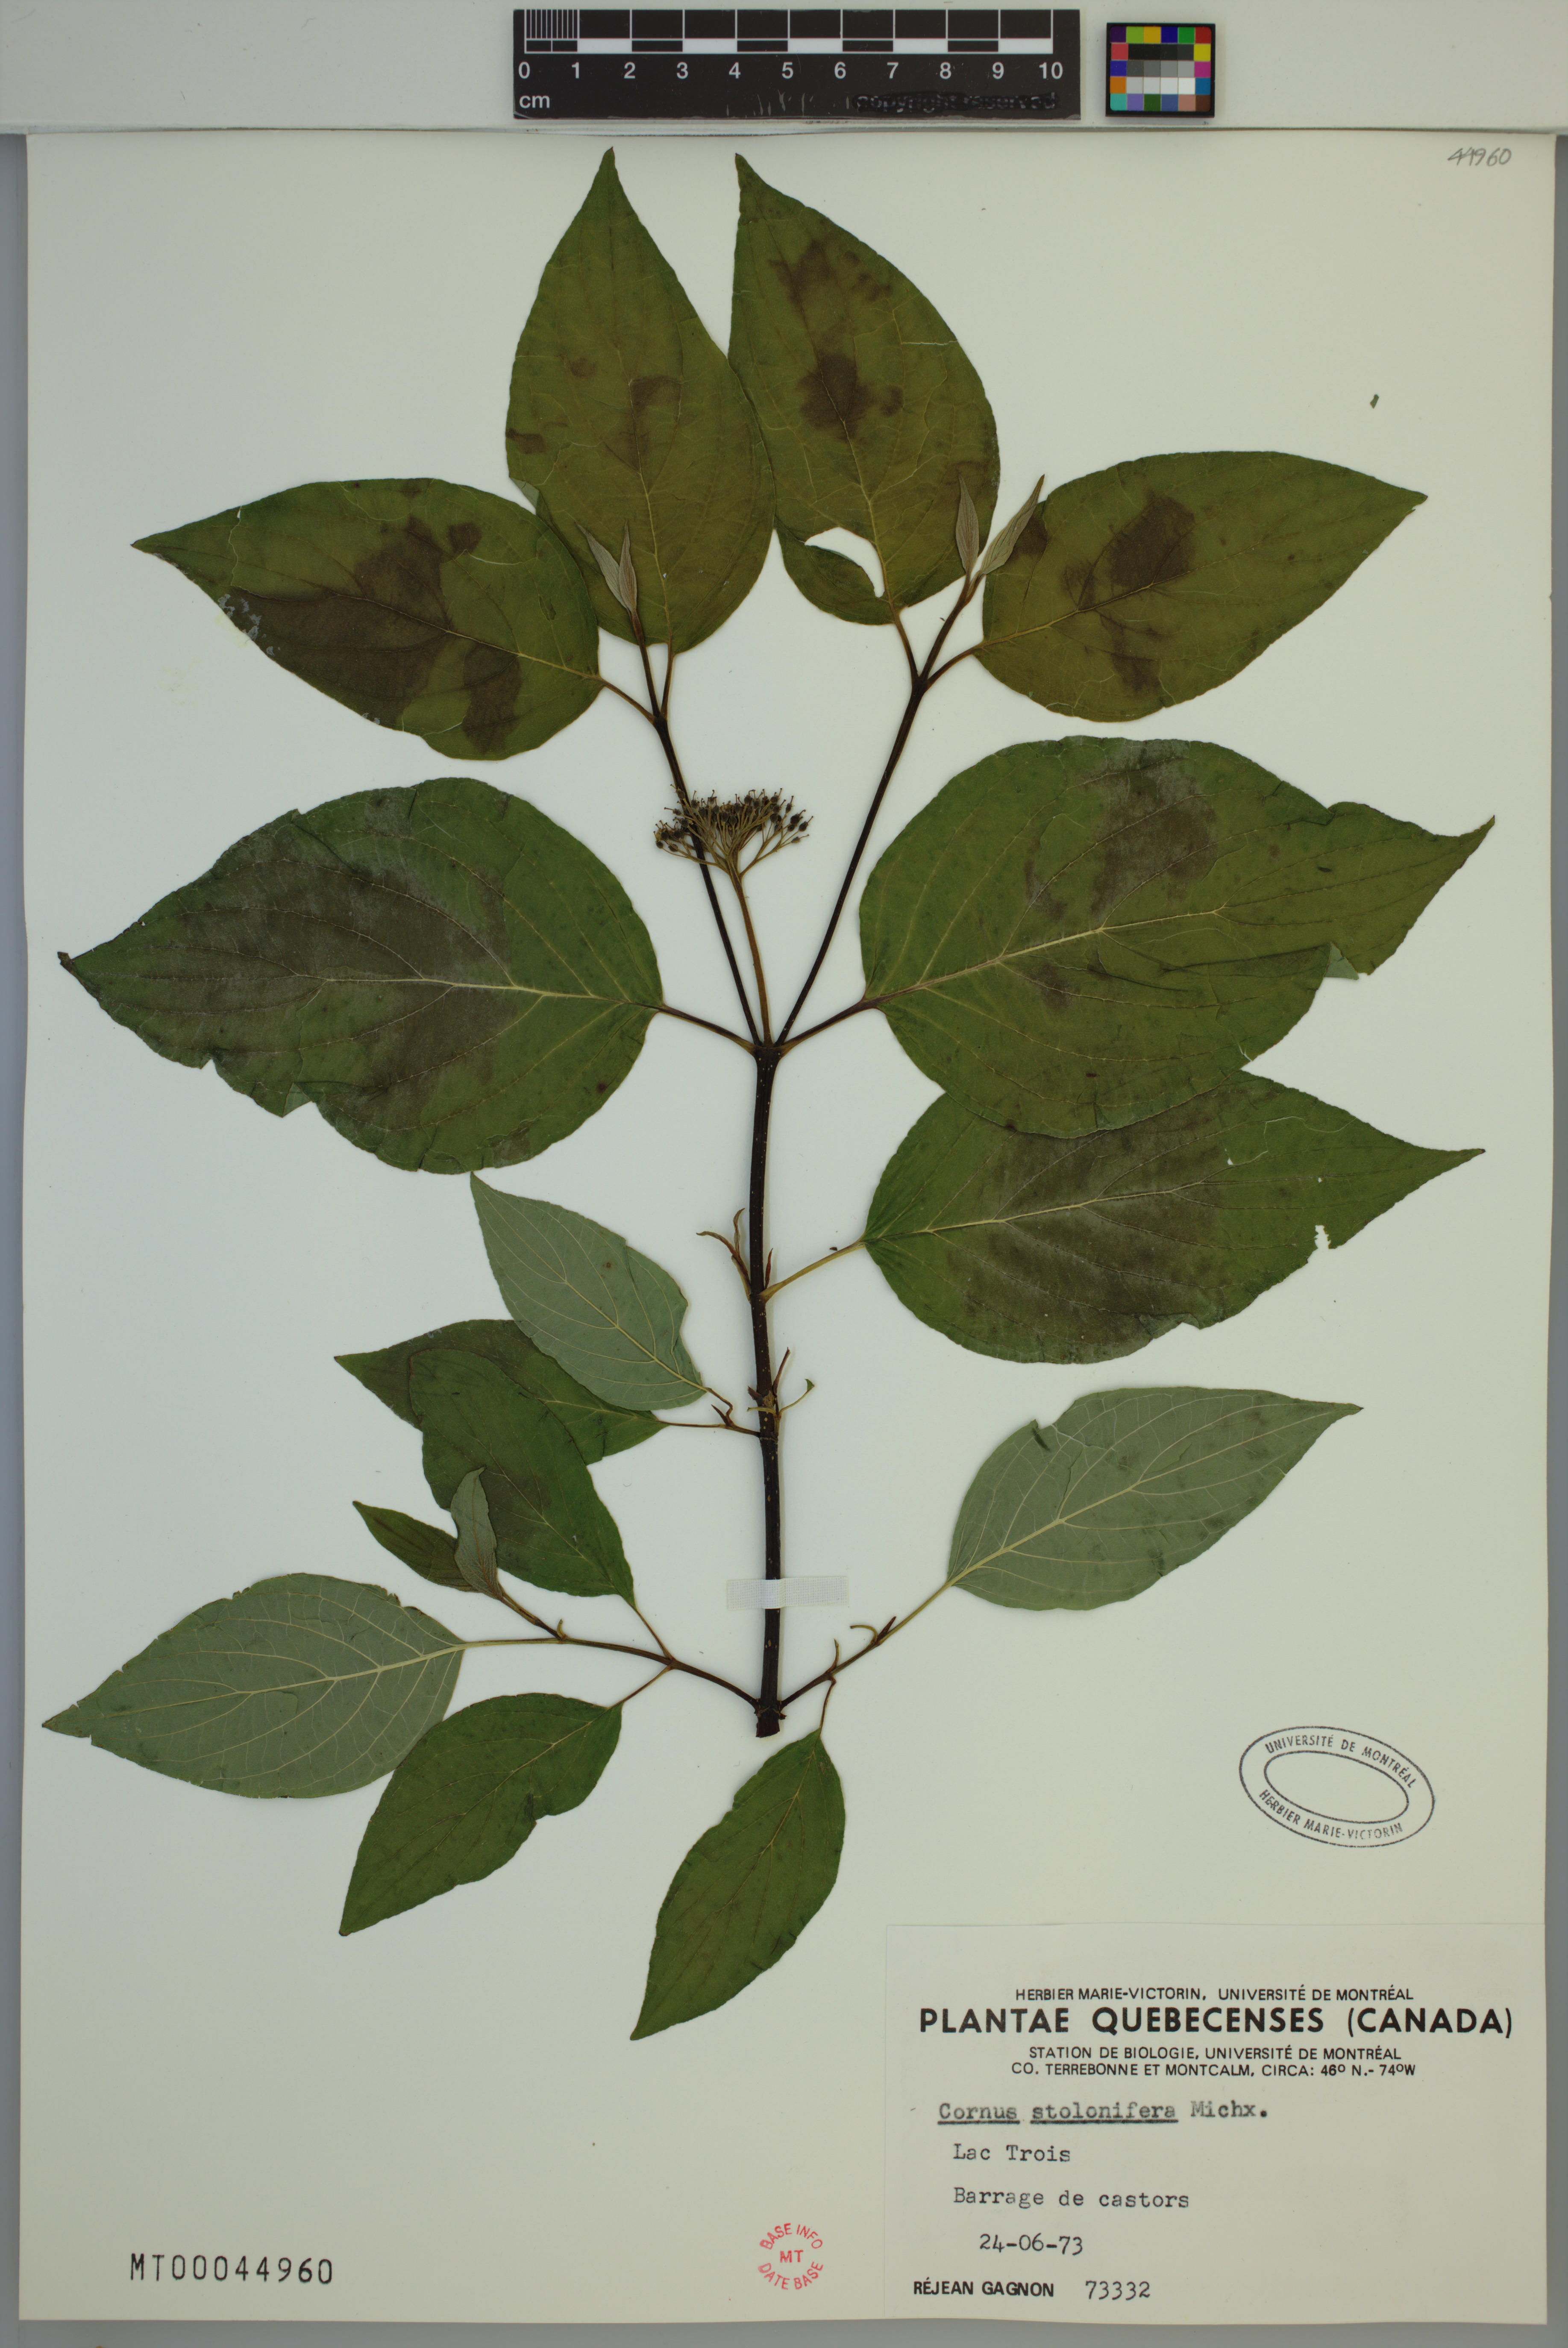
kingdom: Plantae
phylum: Tracheophyta
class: Magnoliopsida
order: Cornales
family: Cornaceae
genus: Cornus
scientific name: Cornus sericea
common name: Red-osier dogwood
